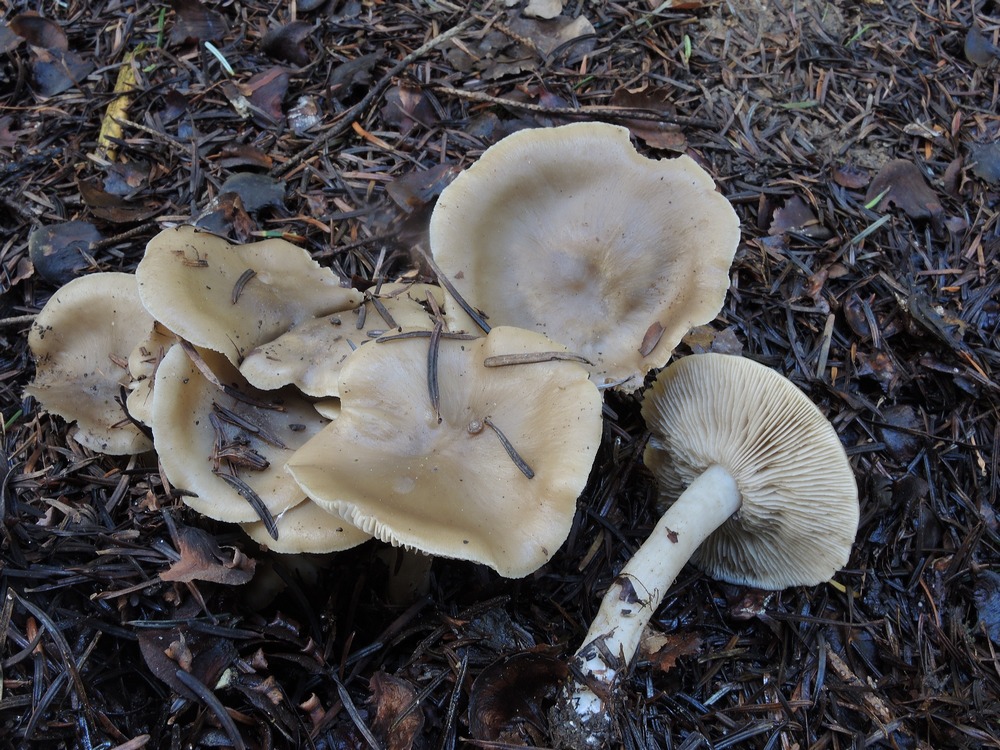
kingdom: Fungi
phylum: Basidiomycota
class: Agaricomycetes
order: Agaricales
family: Lyophyllaceae
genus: Lyophyllum
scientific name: Lyophyllum decastes
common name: Clustered domecap
